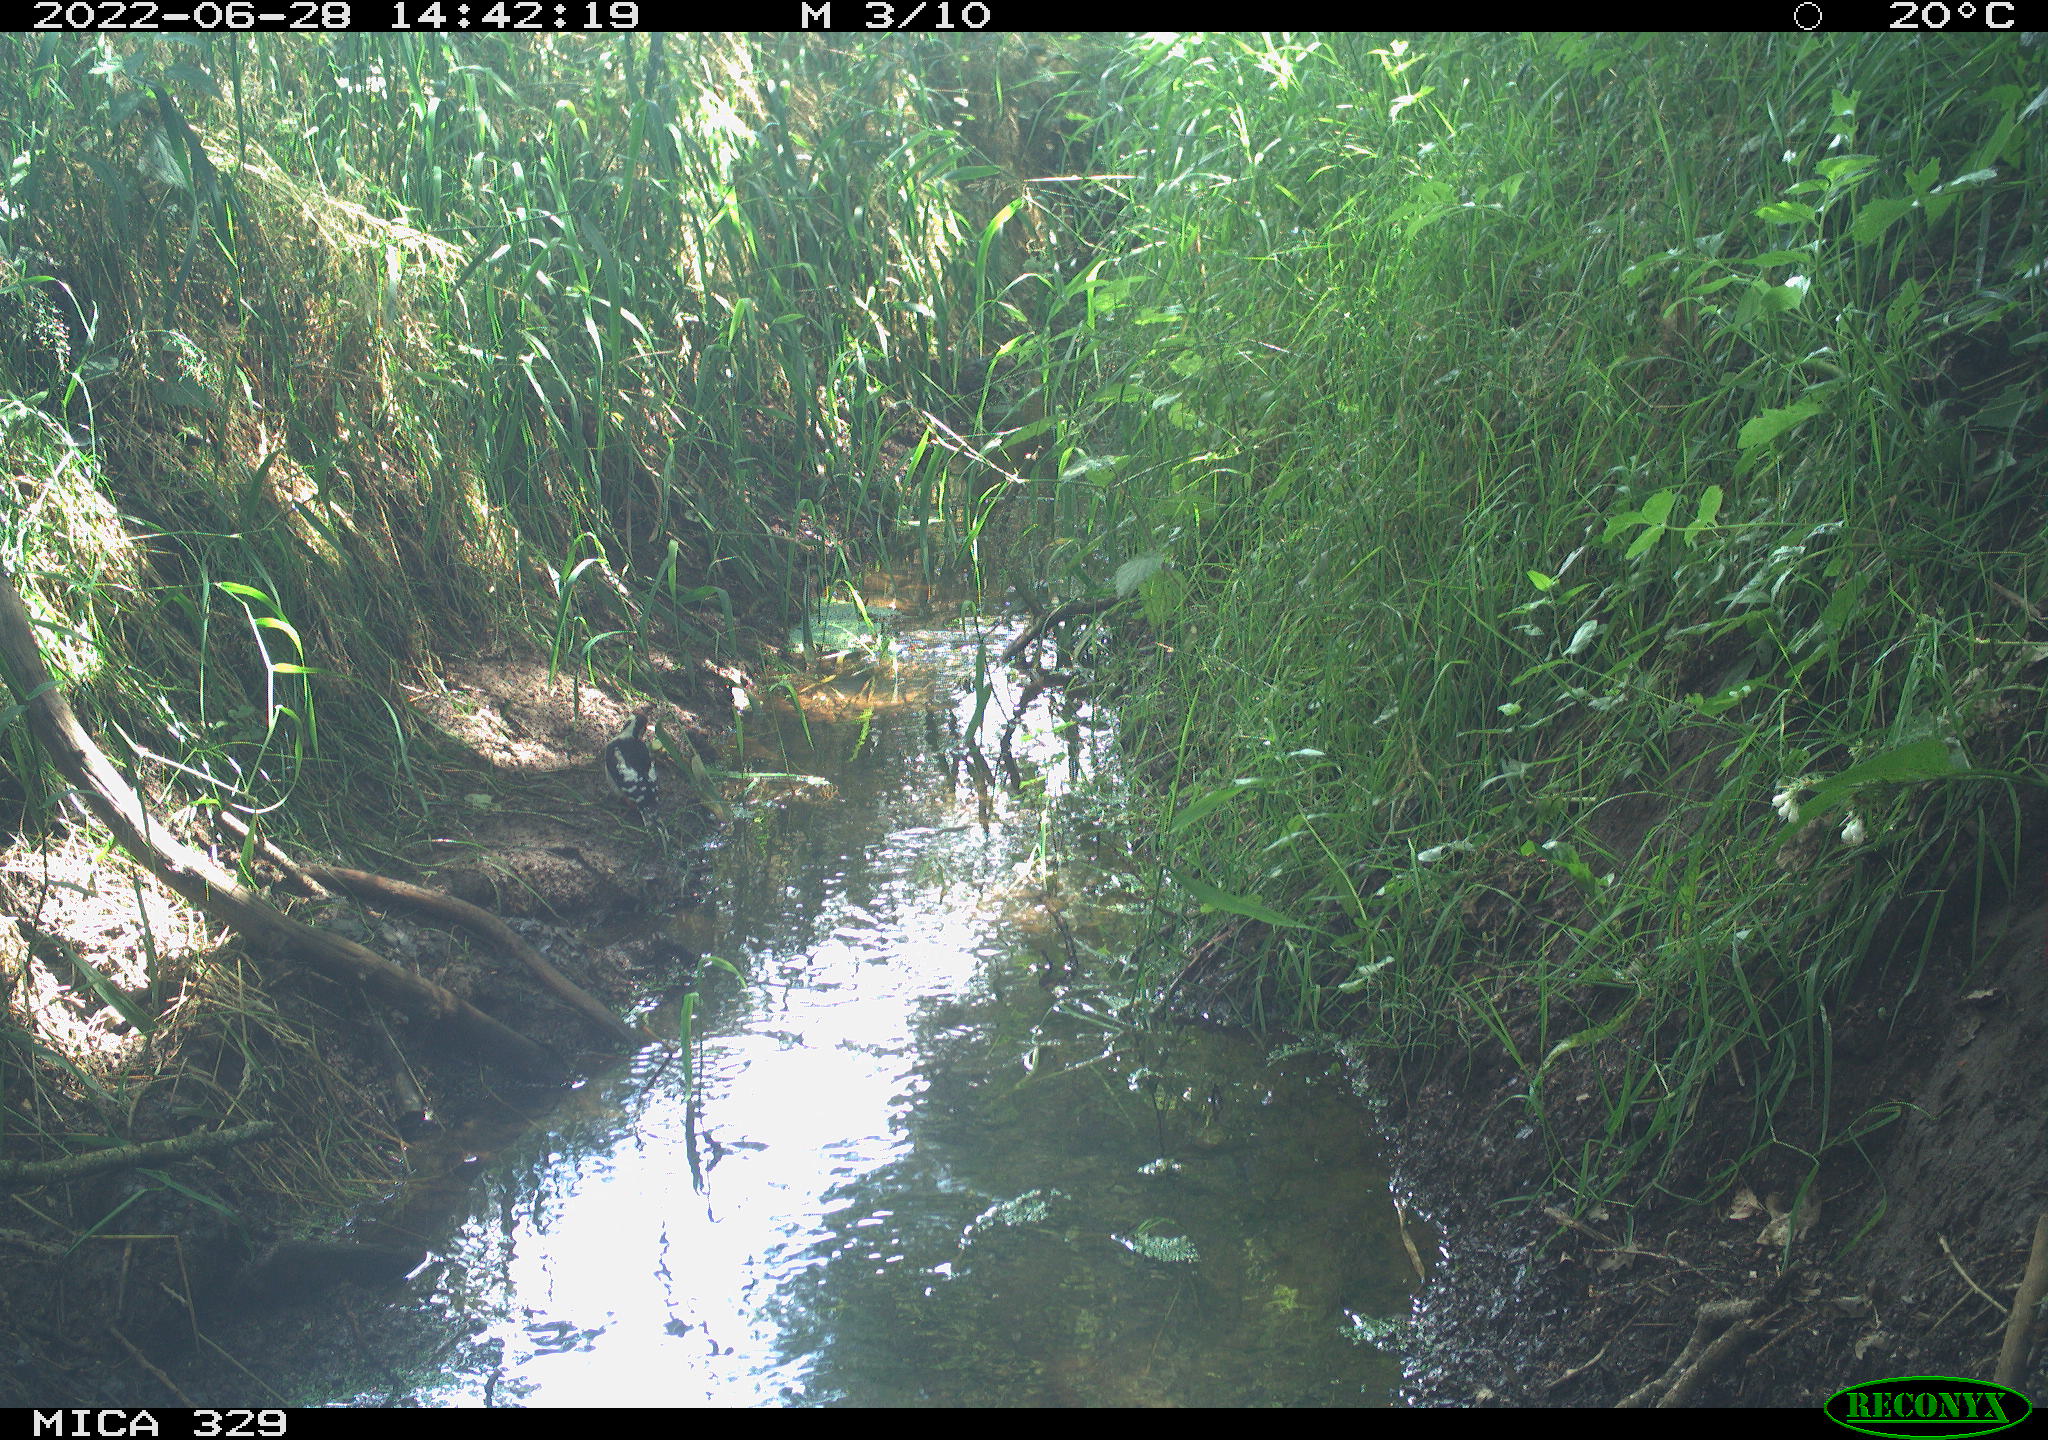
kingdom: Animalia
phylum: Chordata
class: Aves
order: Piciformes
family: Picidae
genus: Dendrocopos
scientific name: Dendrocopos major
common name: Great spotted woodpecker
